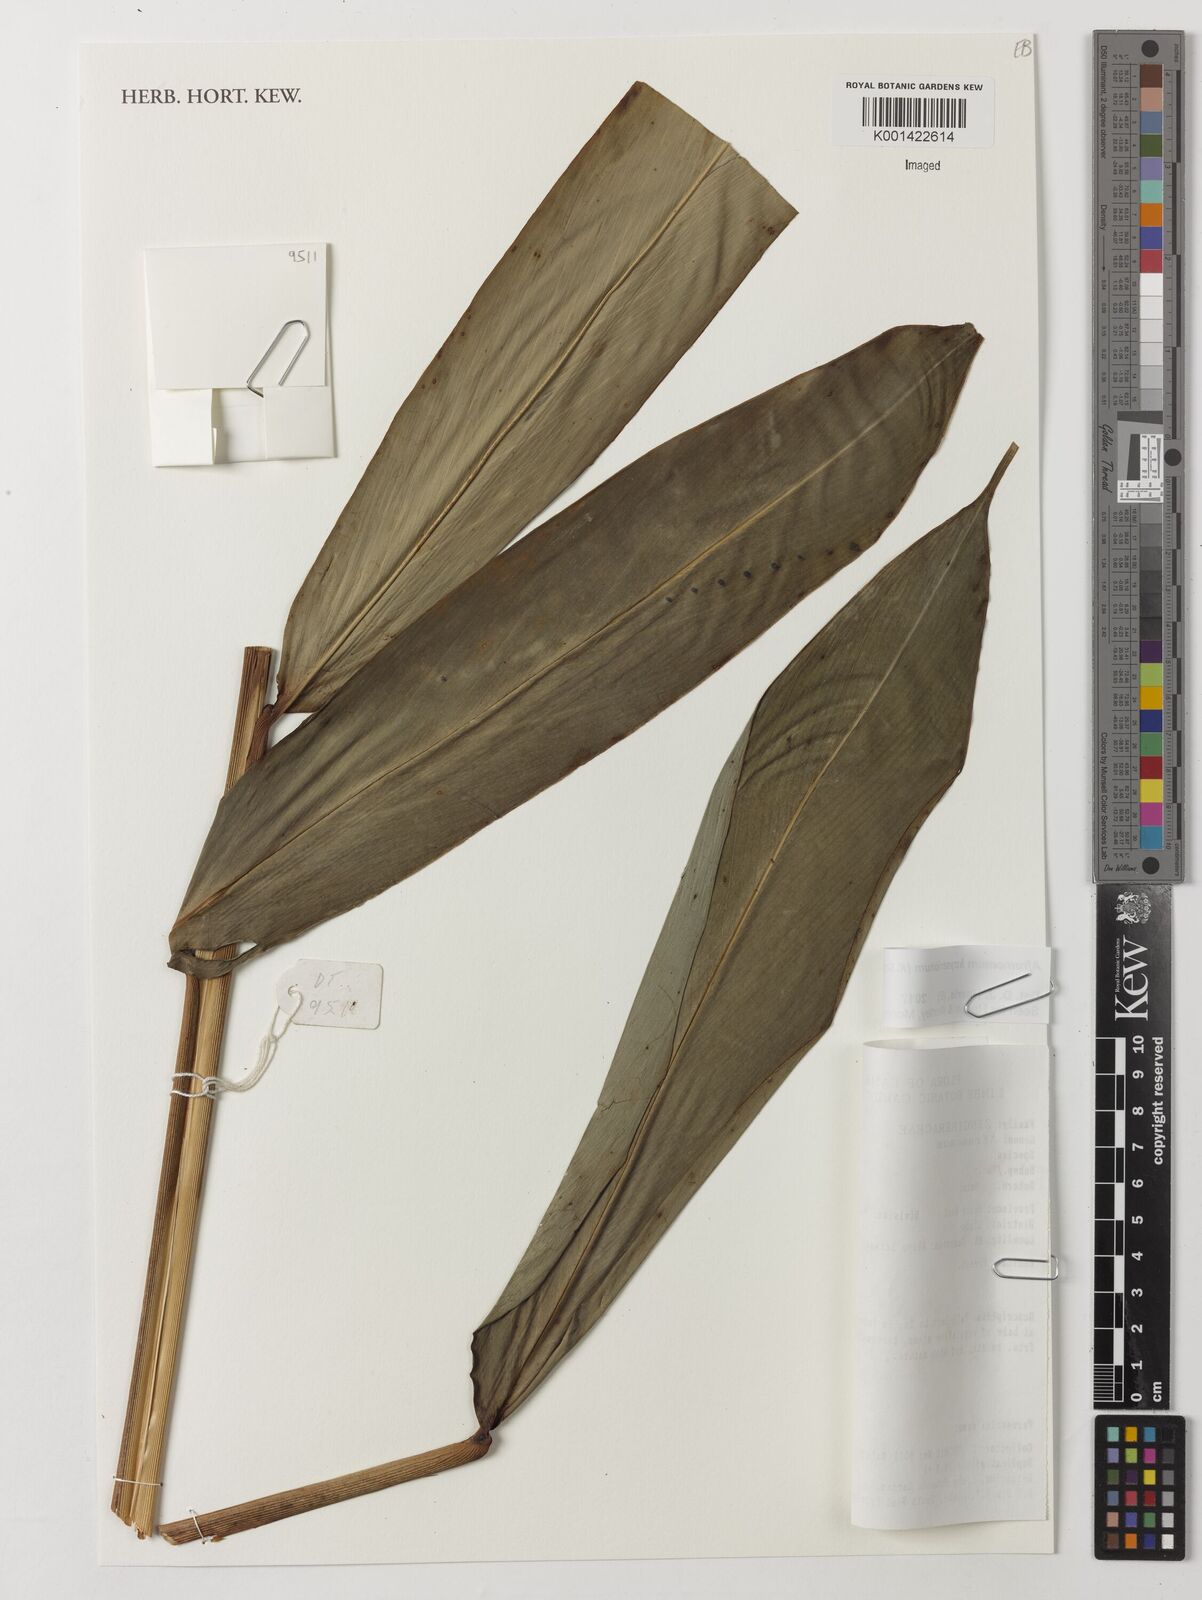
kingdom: Plantae
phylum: Tracheophyta
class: Liliopsida
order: Zingiberales
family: Zingiberaceae
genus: Aframomum
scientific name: Aframomum kayserianum
